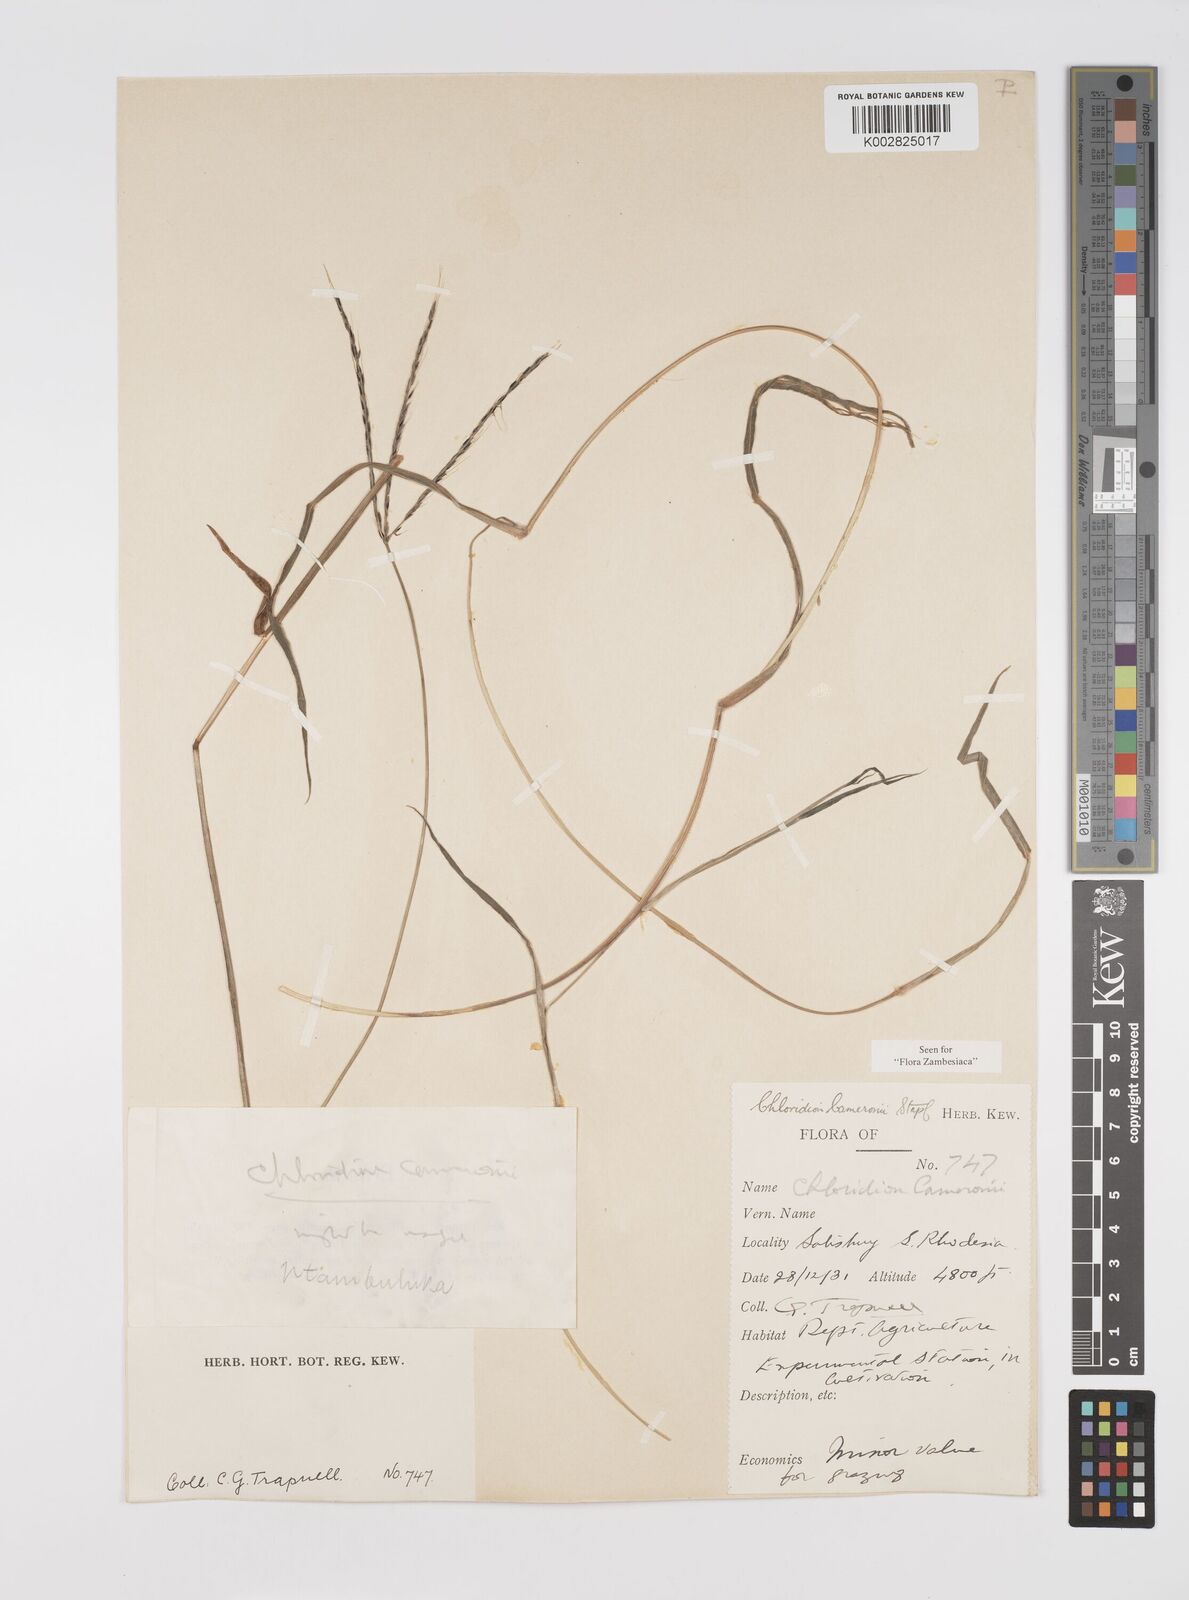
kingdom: Plantae
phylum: Tracheophyta
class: Liliopsida
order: Poales
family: Poaceae
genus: Stereochlaena
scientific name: Stereochlaena cameronii
